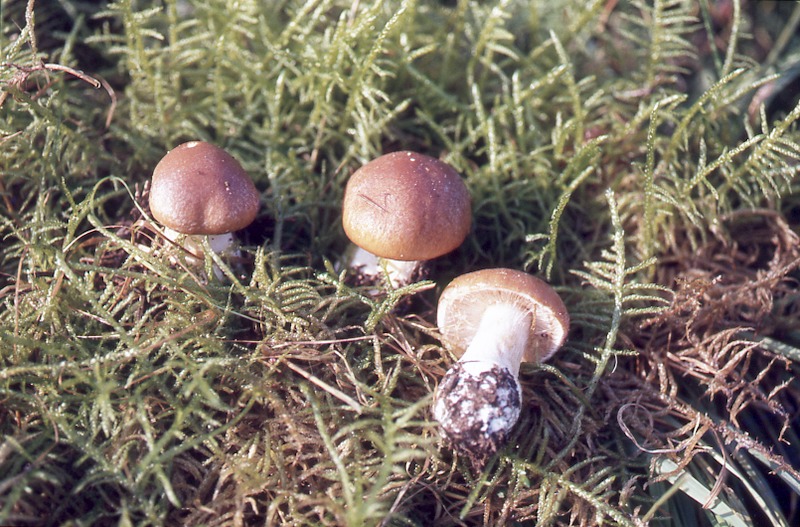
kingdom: Fungi
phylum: Basidiomycota
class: Agaricomycetes
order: Agaricales
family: Cortinariaceae
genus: Calonarius
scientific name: Calonarius coniferarum
